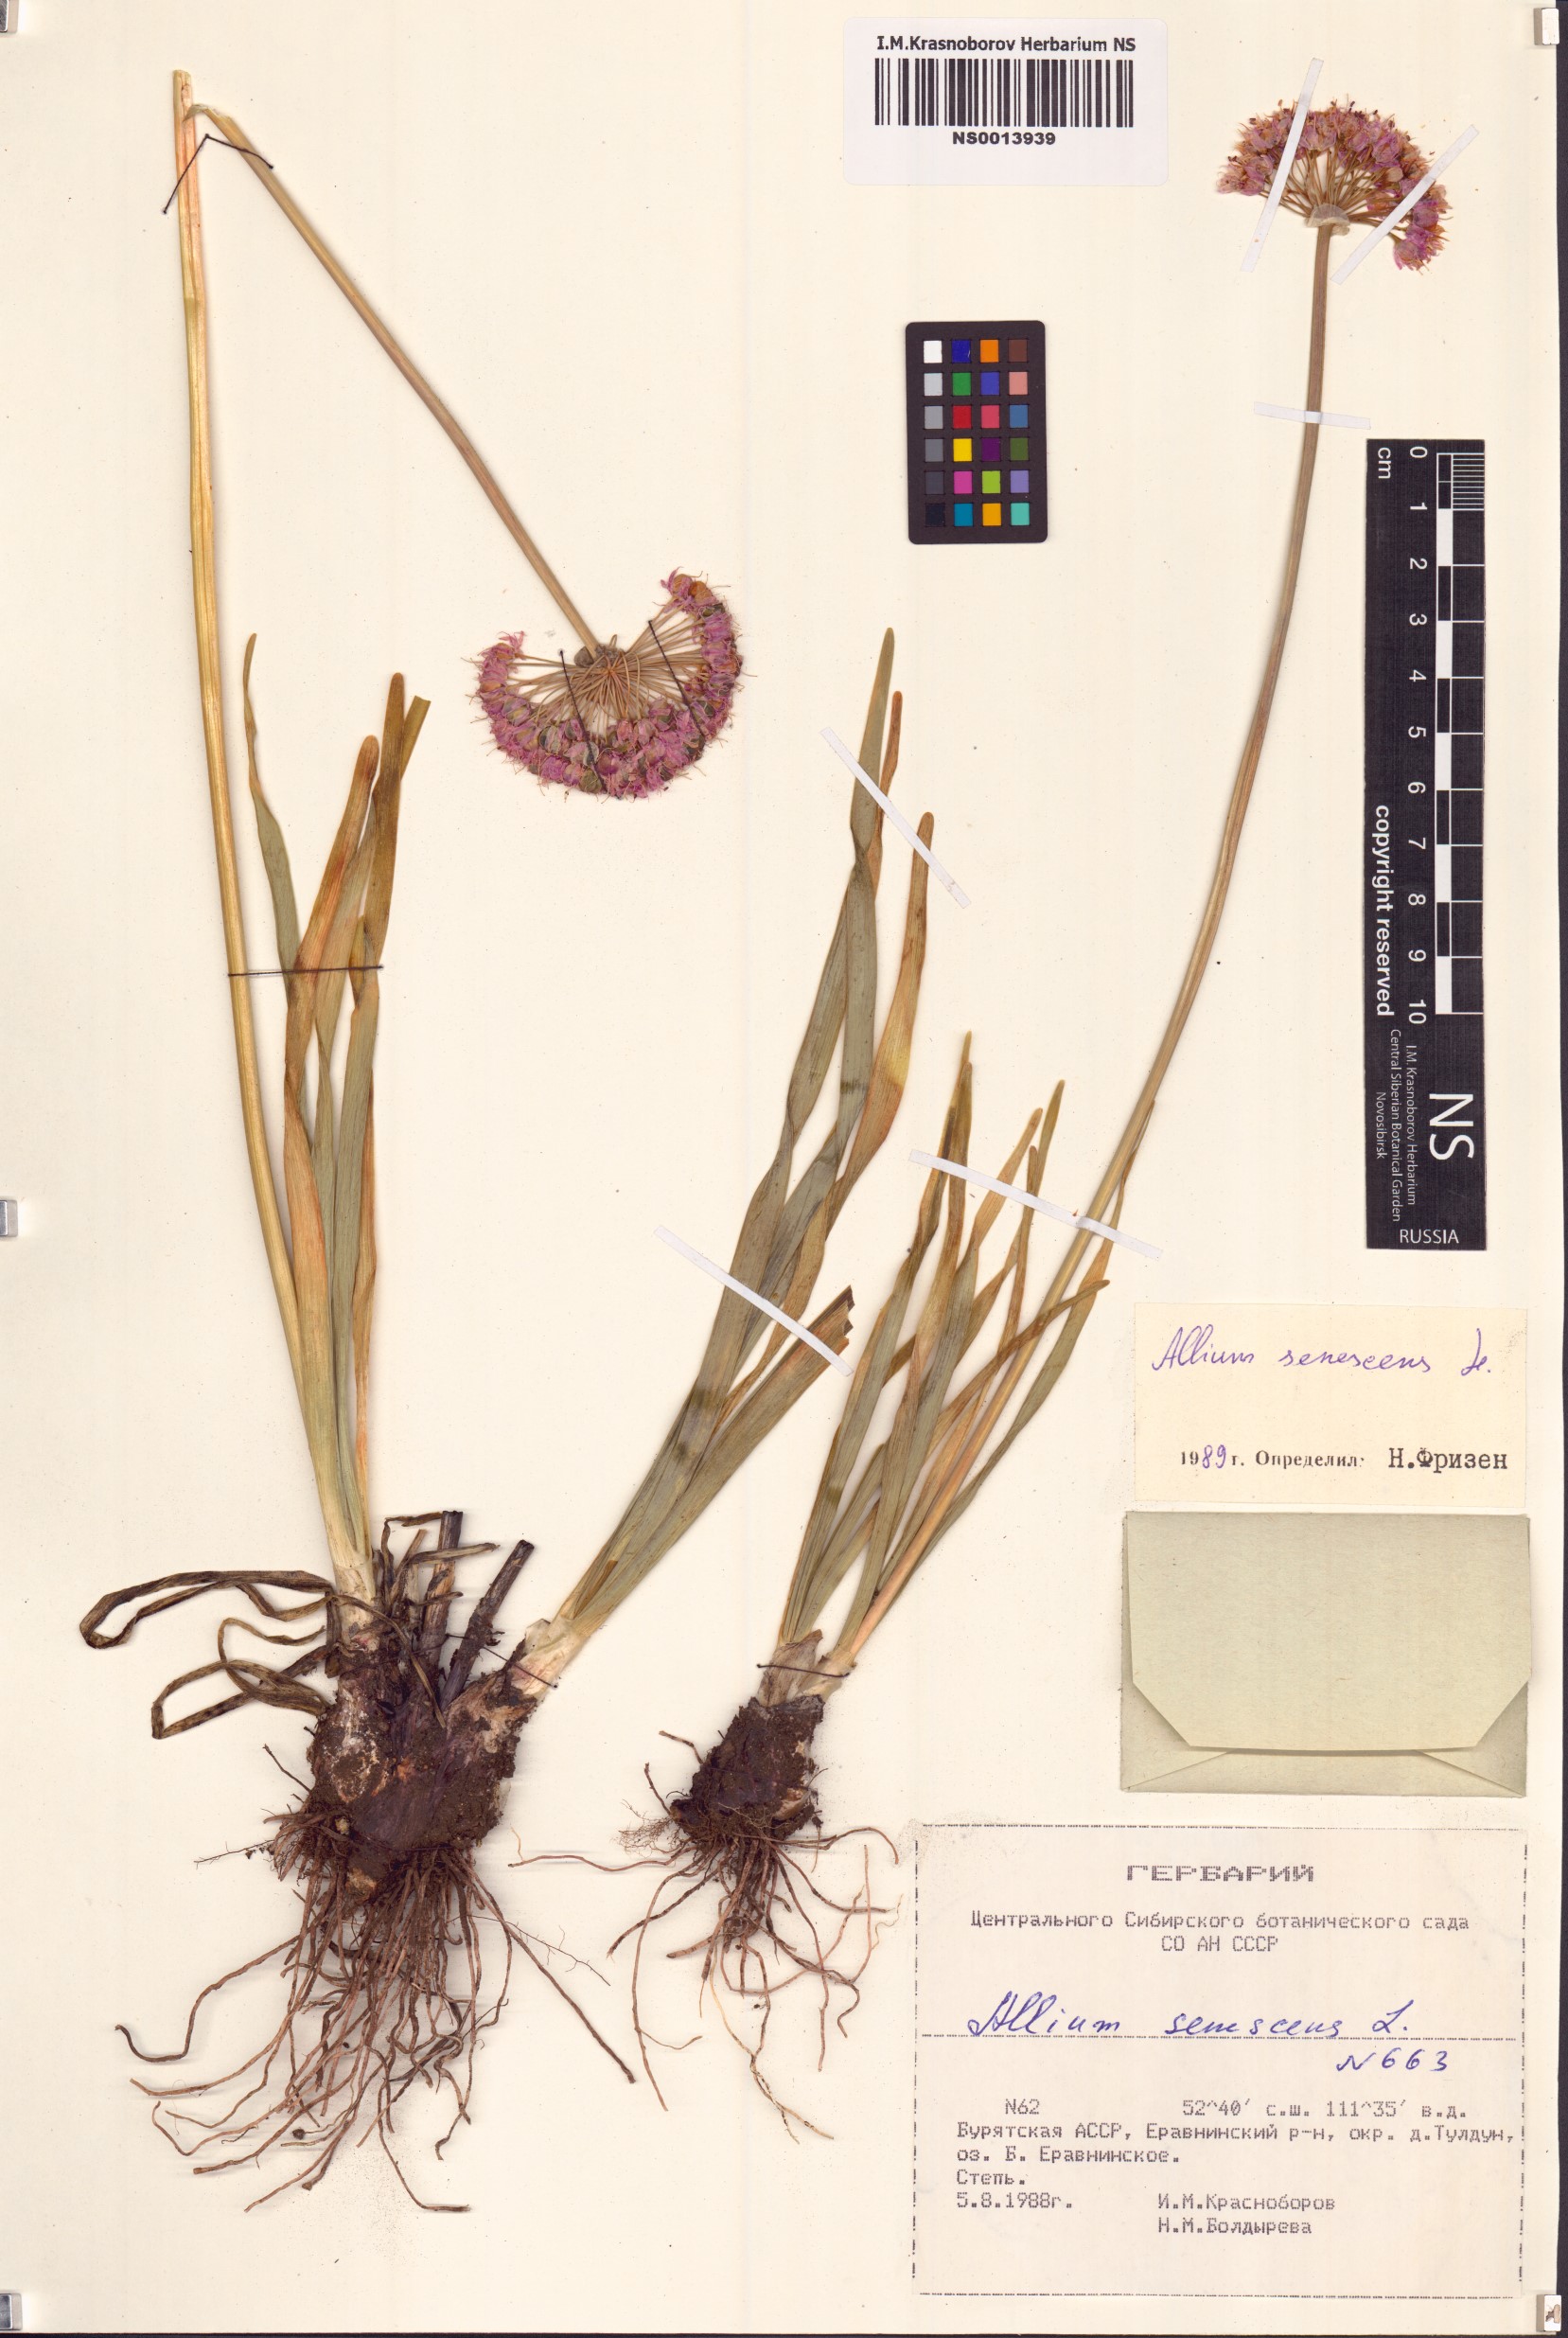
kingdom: Plantae
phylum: Tracheophyta
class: Liliopsida
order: Asparagales
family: Amaryllidaceae
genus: Allium
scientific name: Allium senescens
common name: German garlic
